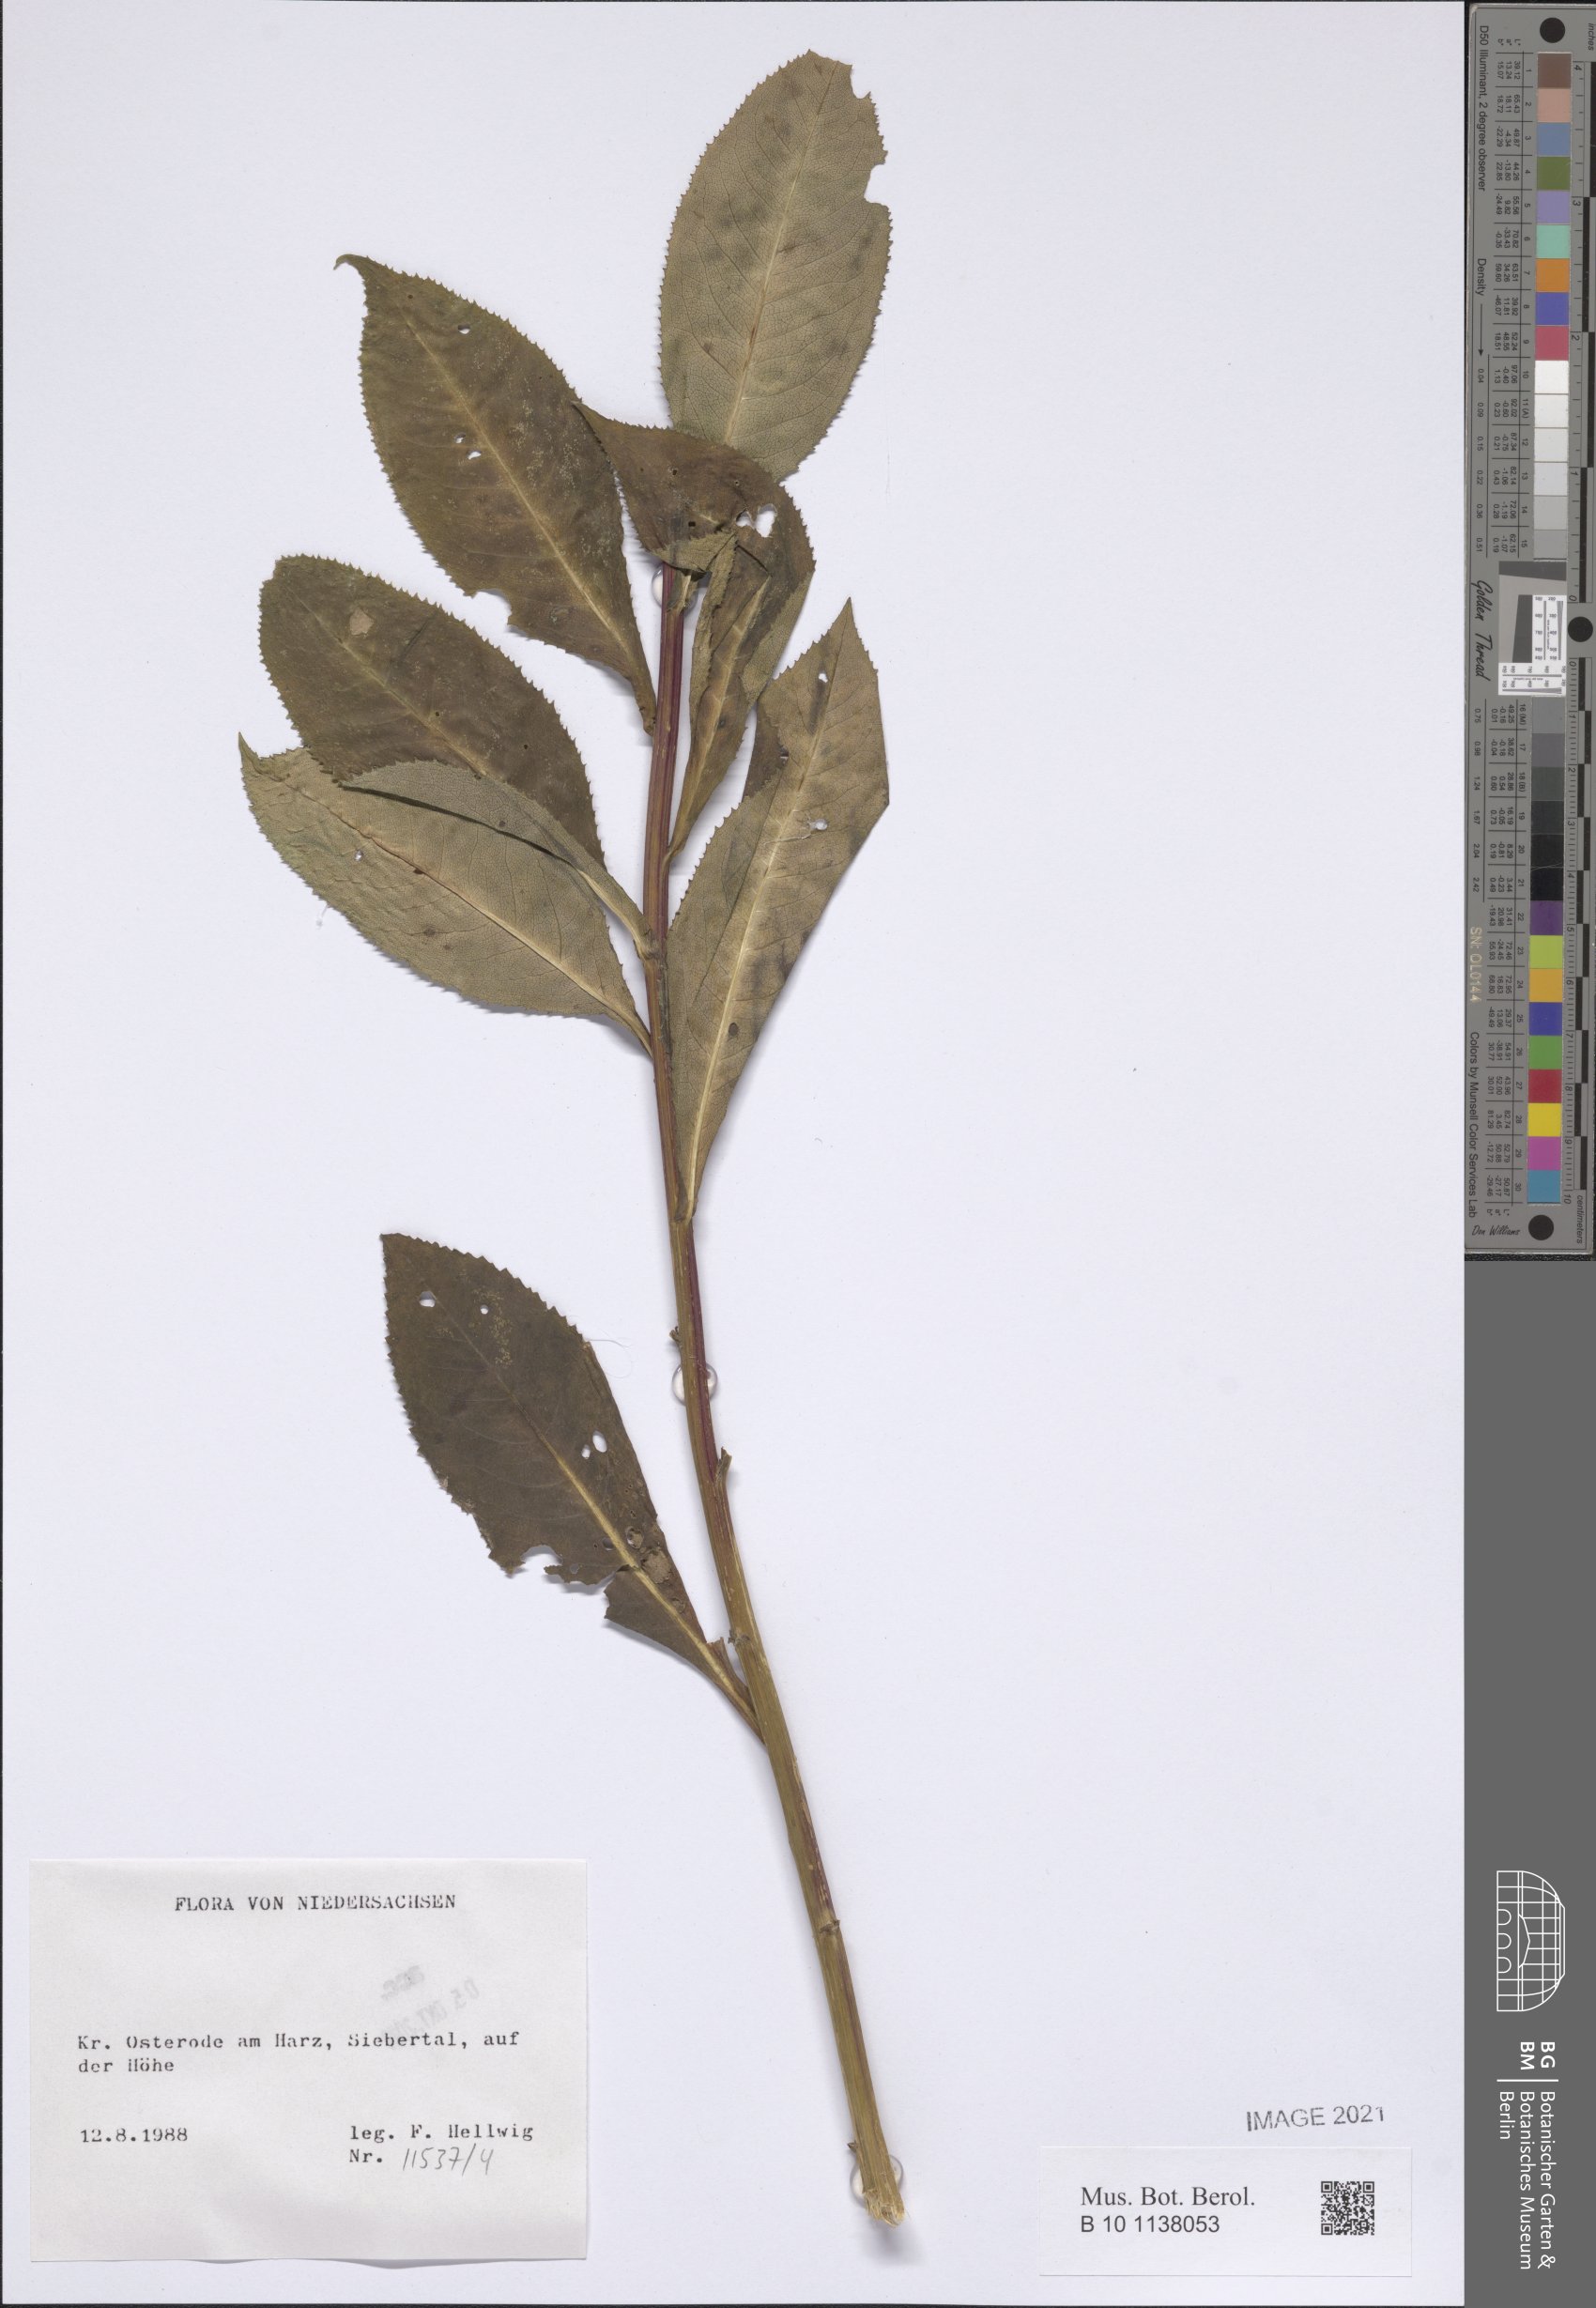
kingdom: Plantae
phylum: Tracheophyta
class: Magnoliopsida
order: Asterales
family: Asteraceae
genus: Senecio
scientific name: Senecio ovatus
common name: Wood ragwort
